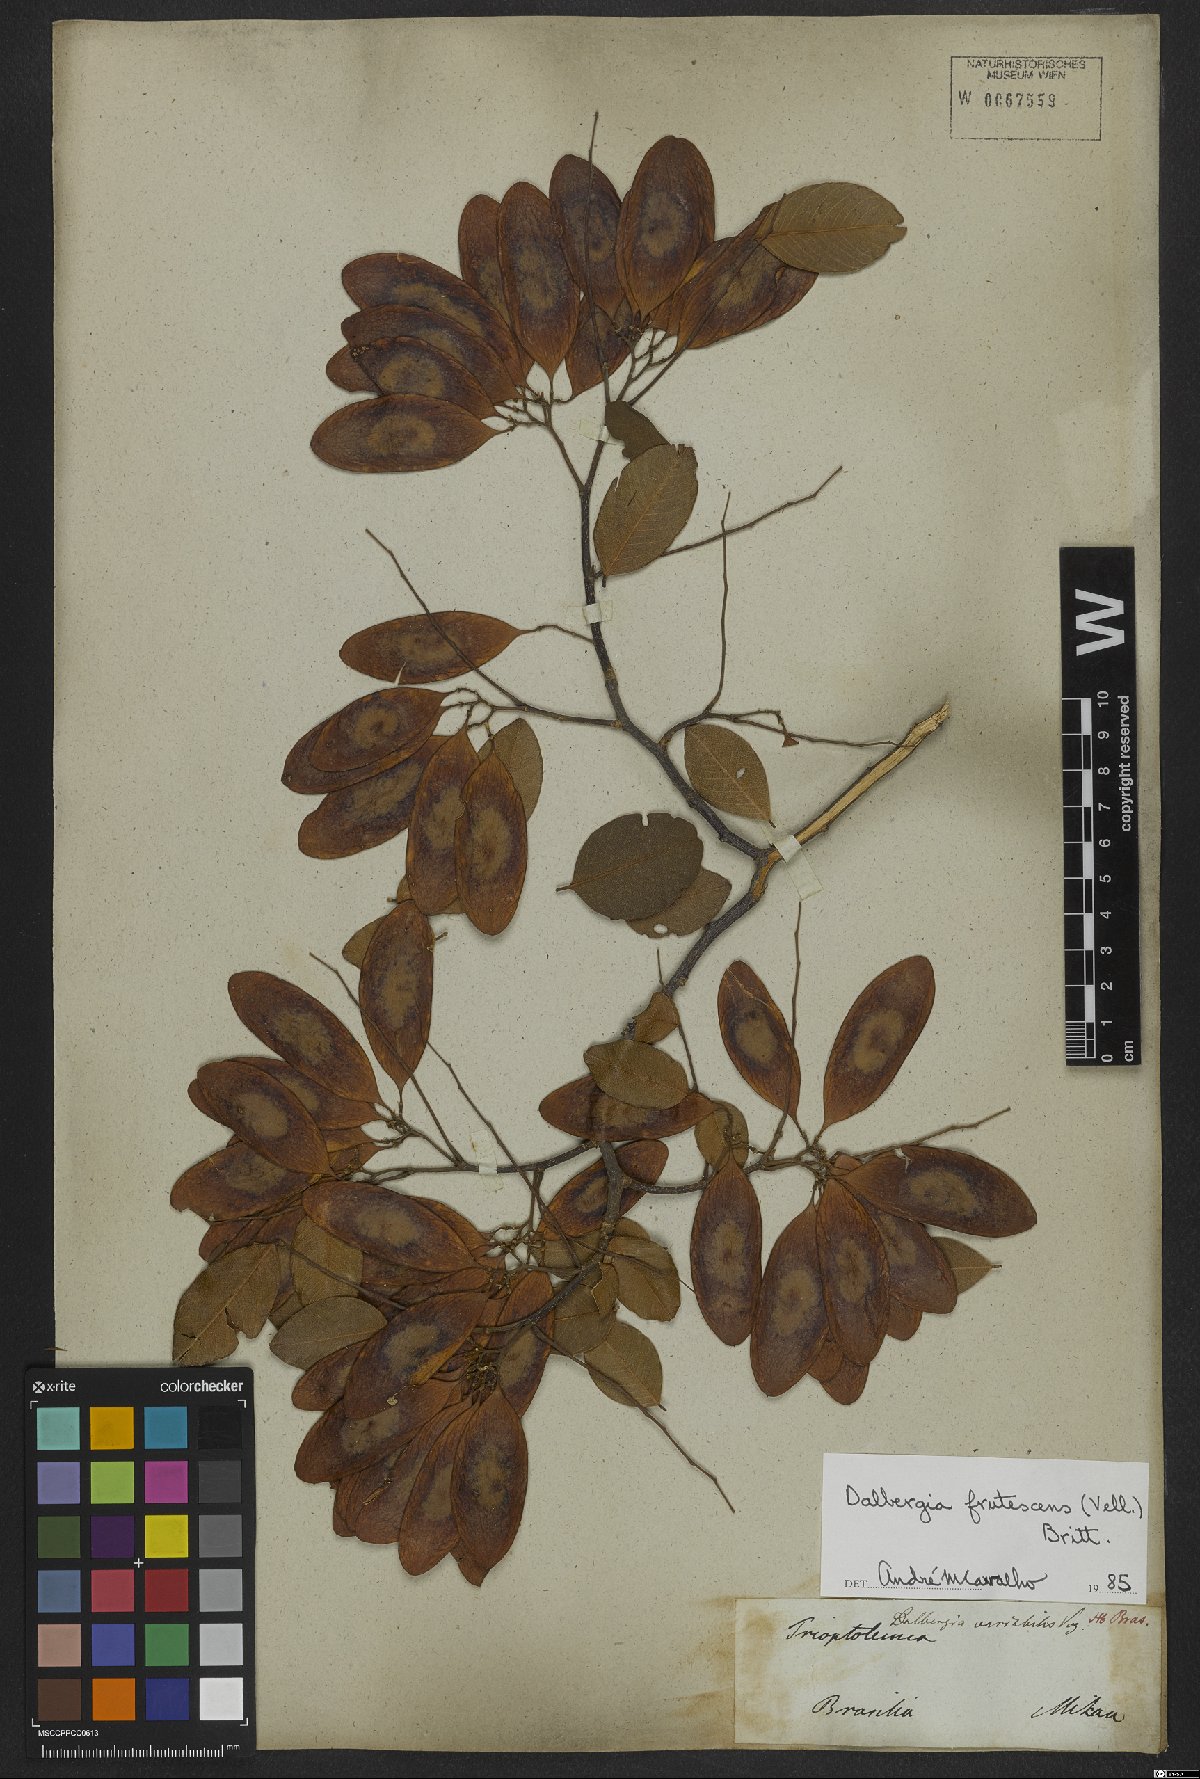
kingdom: Plantae
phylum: Tracheophyta
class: Magnoliopsida
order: Fabales
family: Fabaceae
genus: Dalbergia
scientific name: Dalbergia frutescens
